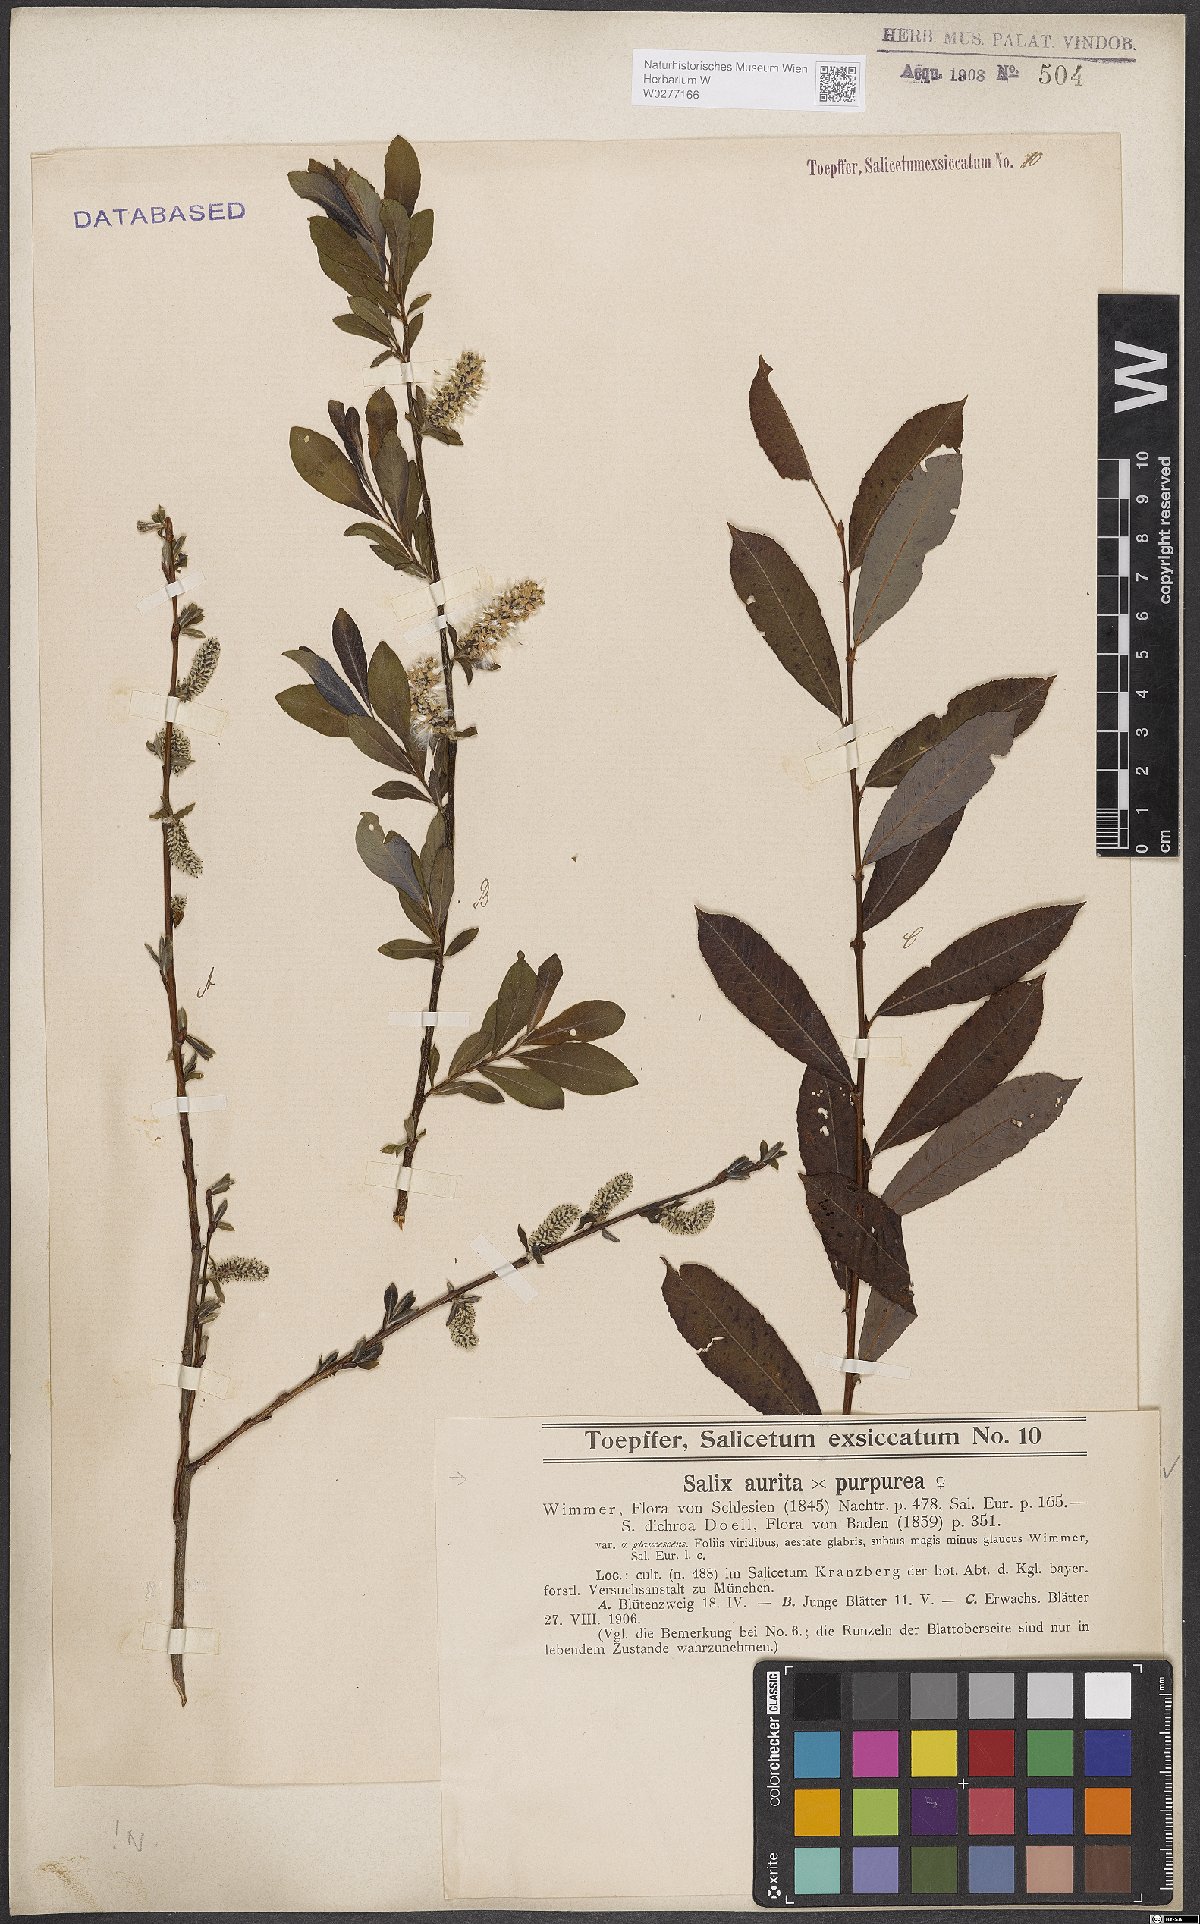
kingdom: Plantae
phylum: Tracheophyta
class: Magnoliopsida
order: Malpighiales
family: Salicaceae
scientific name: Salicaceae
